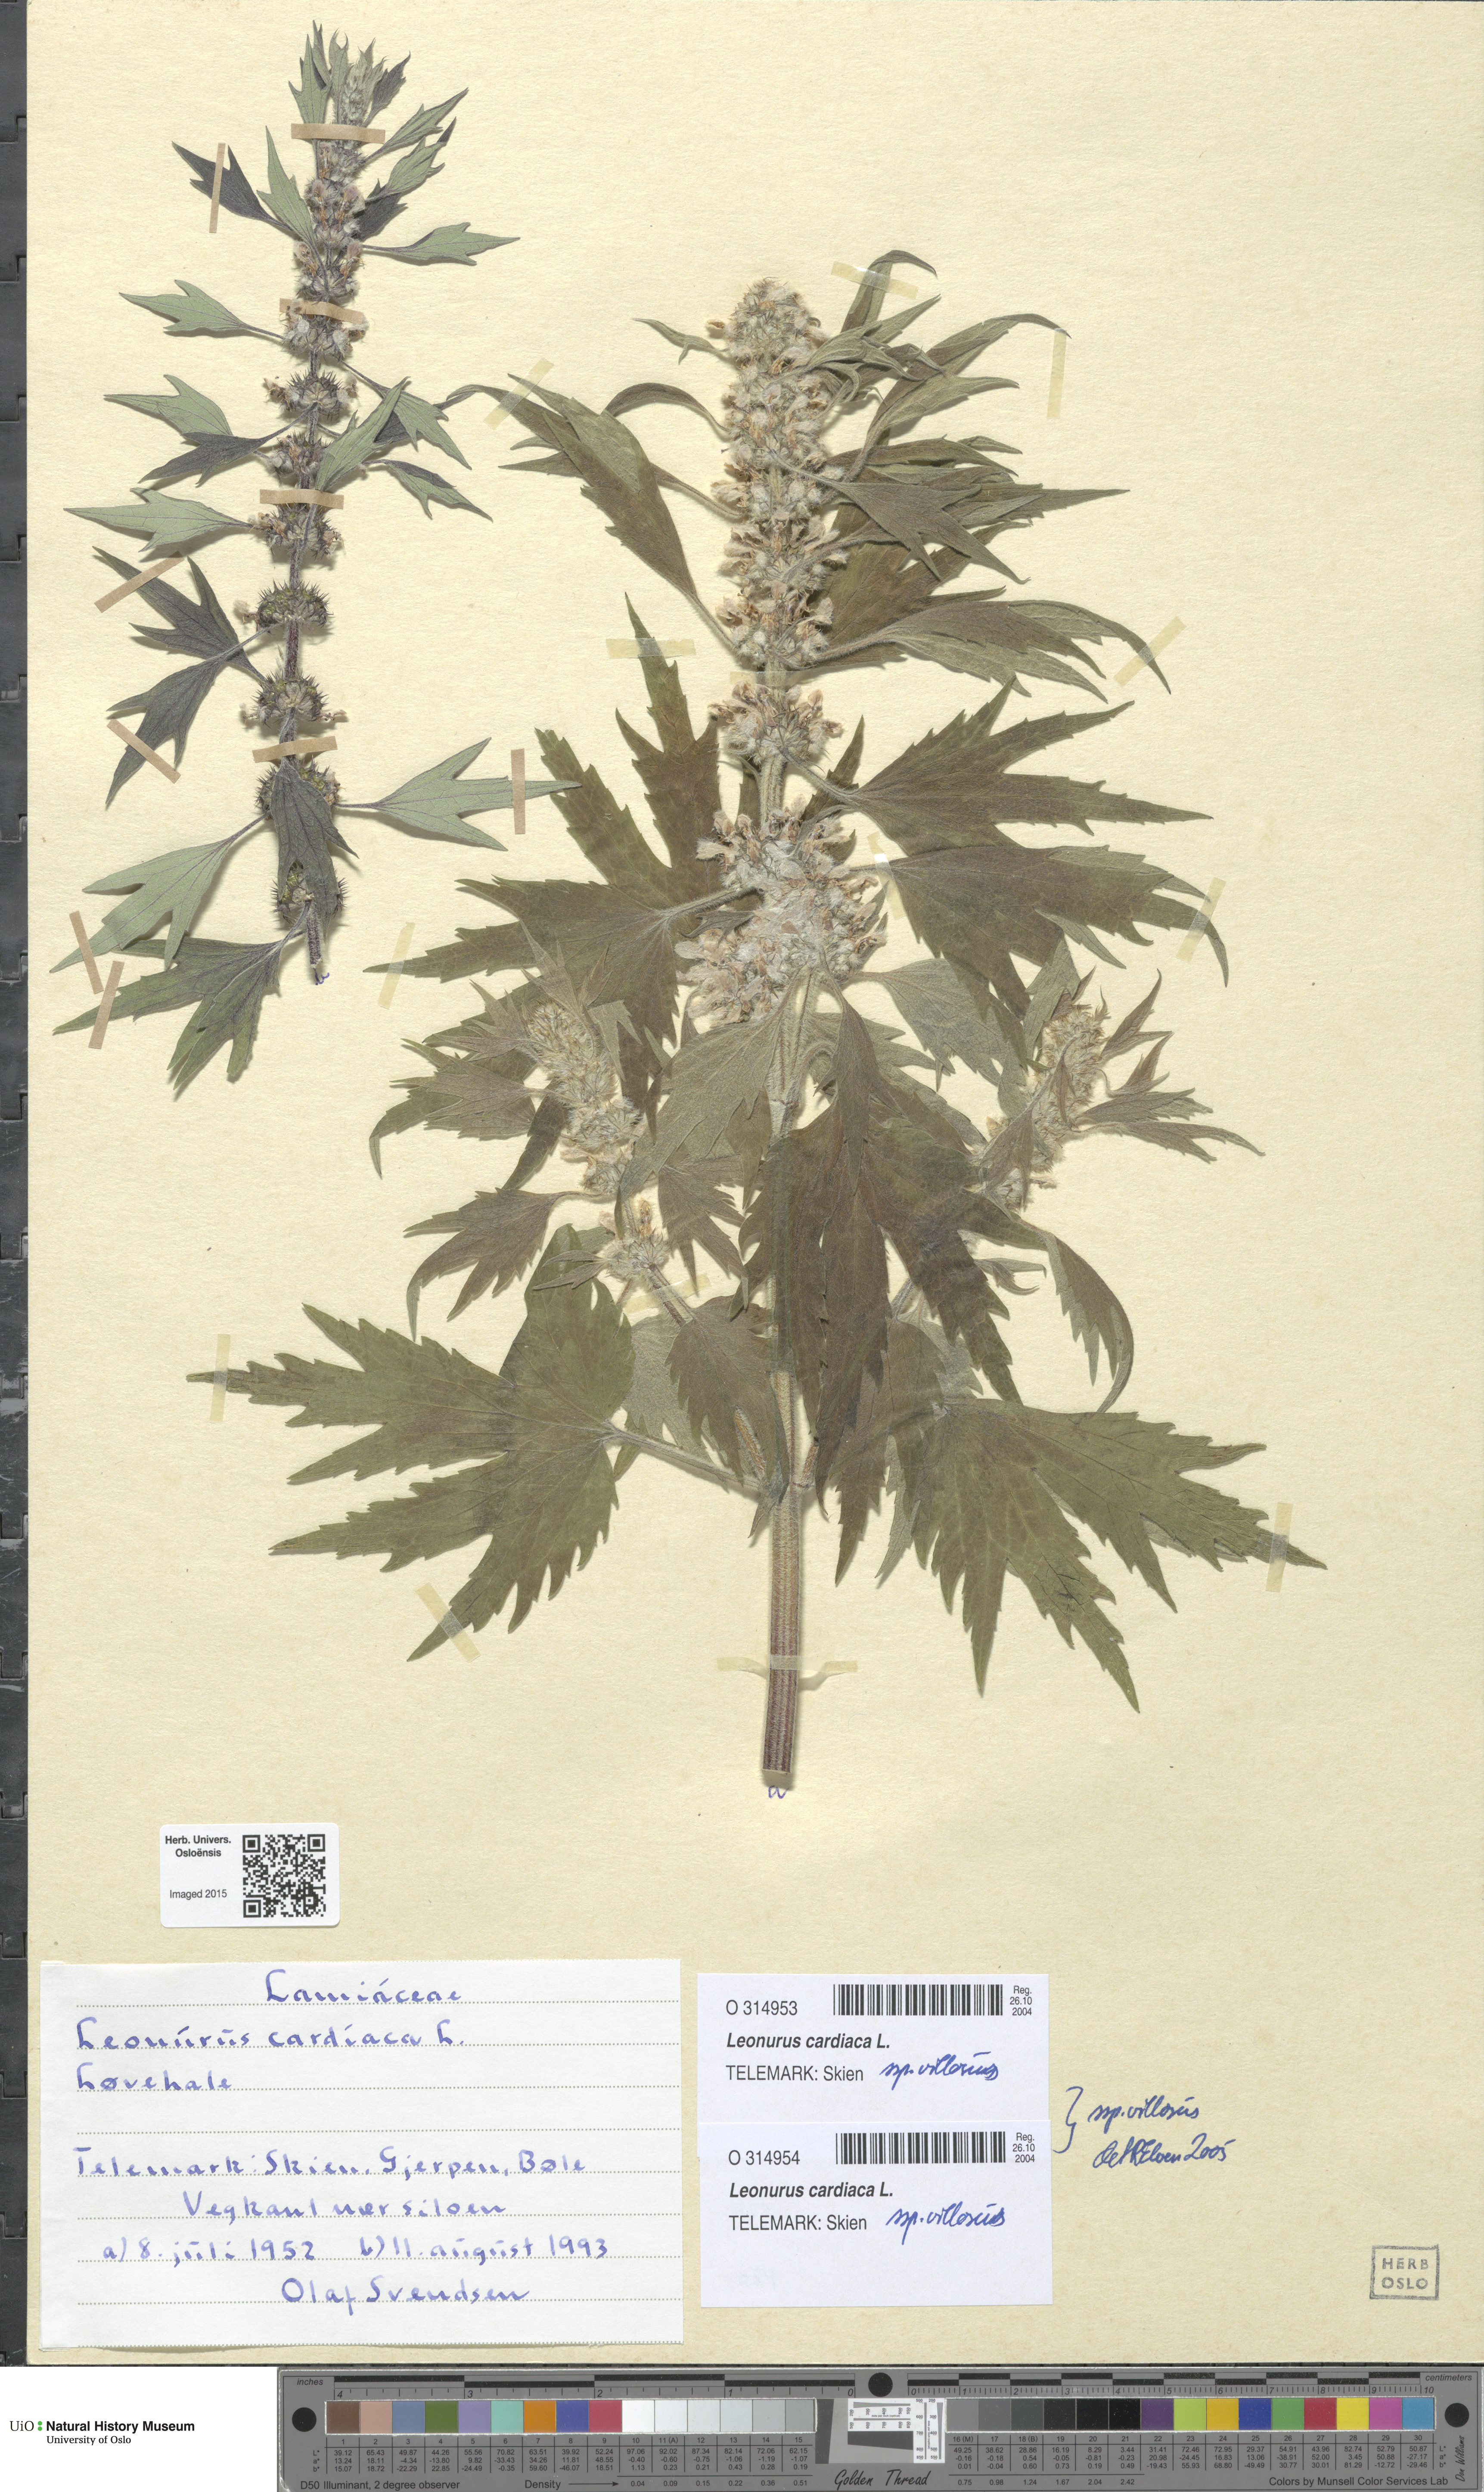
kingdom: Plantae
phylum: Tracheophyta
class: Magnoliopsida
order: Lamiales
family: Lamiaceae
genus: Leonurus
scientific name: Leonurus quinquelobatus
